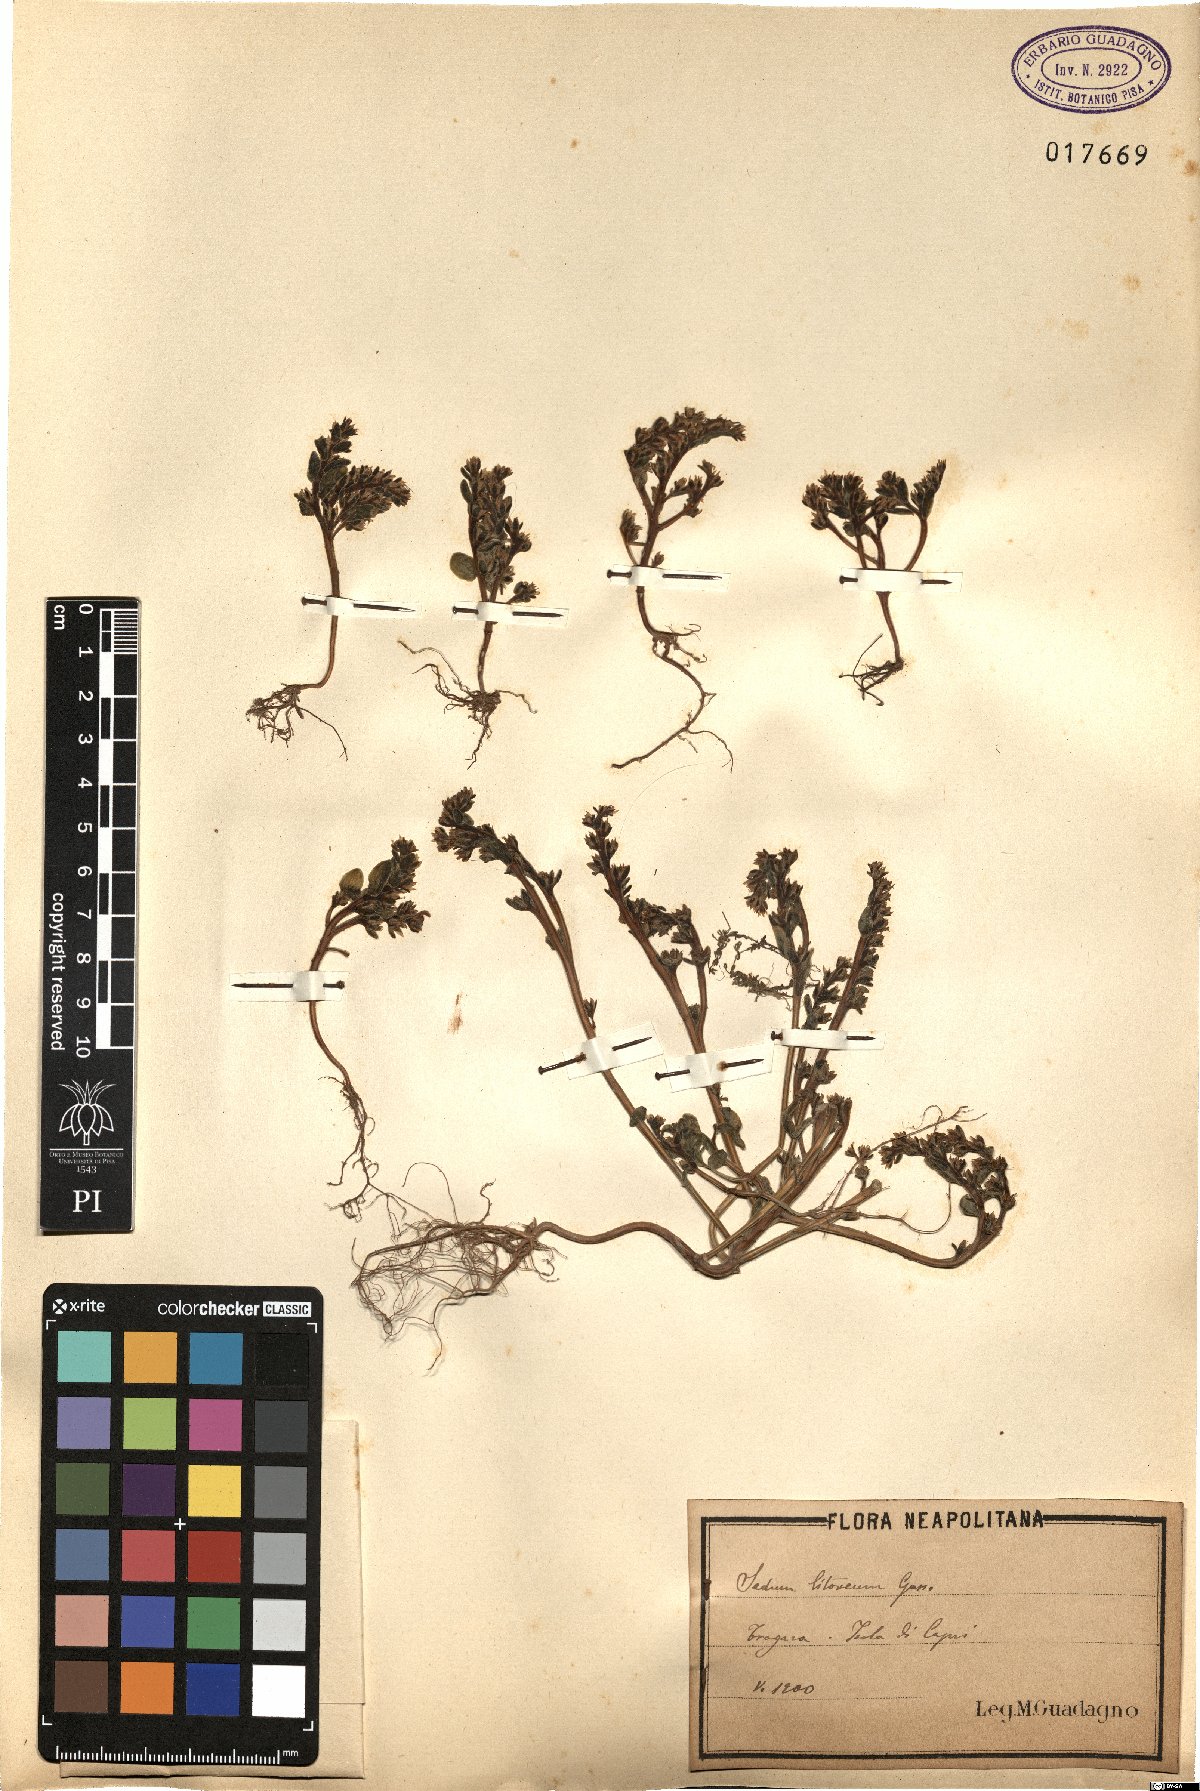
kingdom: Plantae
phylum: Tracheophyta
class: Magnoliopsida
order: Saxifragales
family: Crassulaceae
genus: Sedum
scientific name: Sedum litoreum
